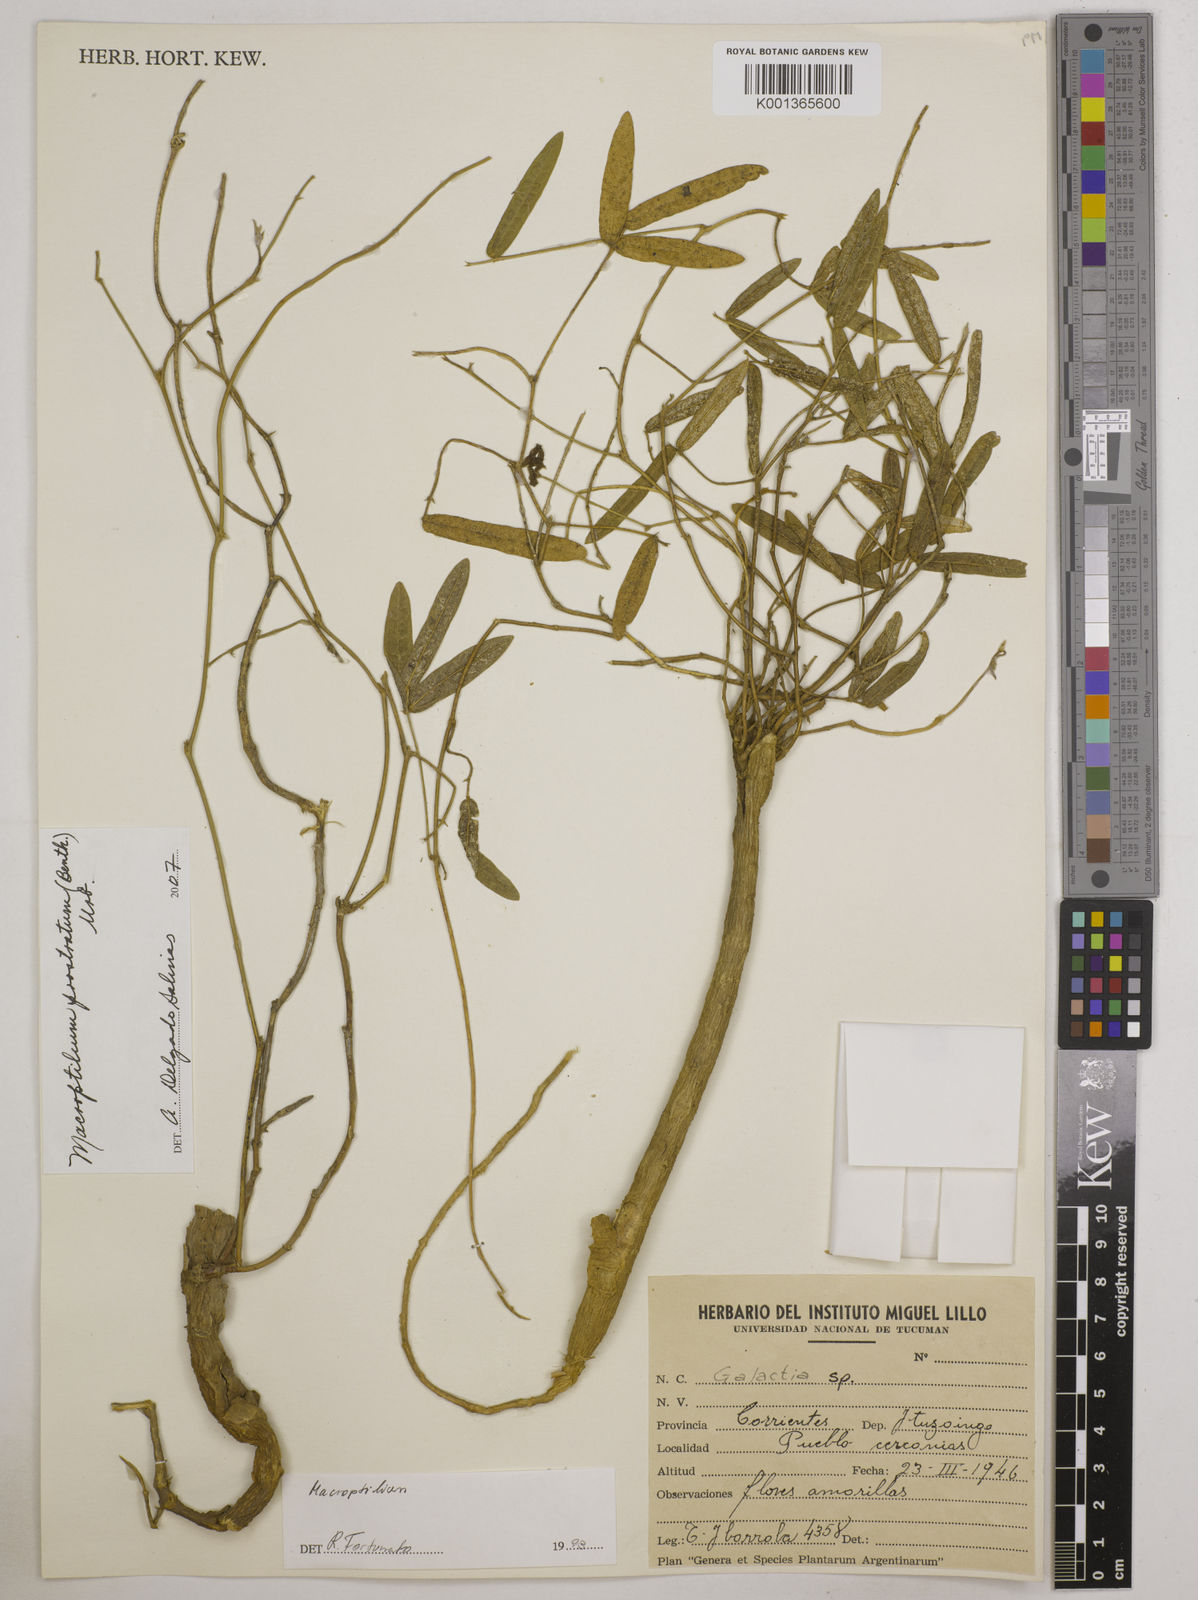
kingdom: Plantae
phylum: Tracheophyta
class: Magnoliopsida
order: Fabales
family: Fabaceae
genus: Macroptilium
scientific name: Macroptilium prostratum
